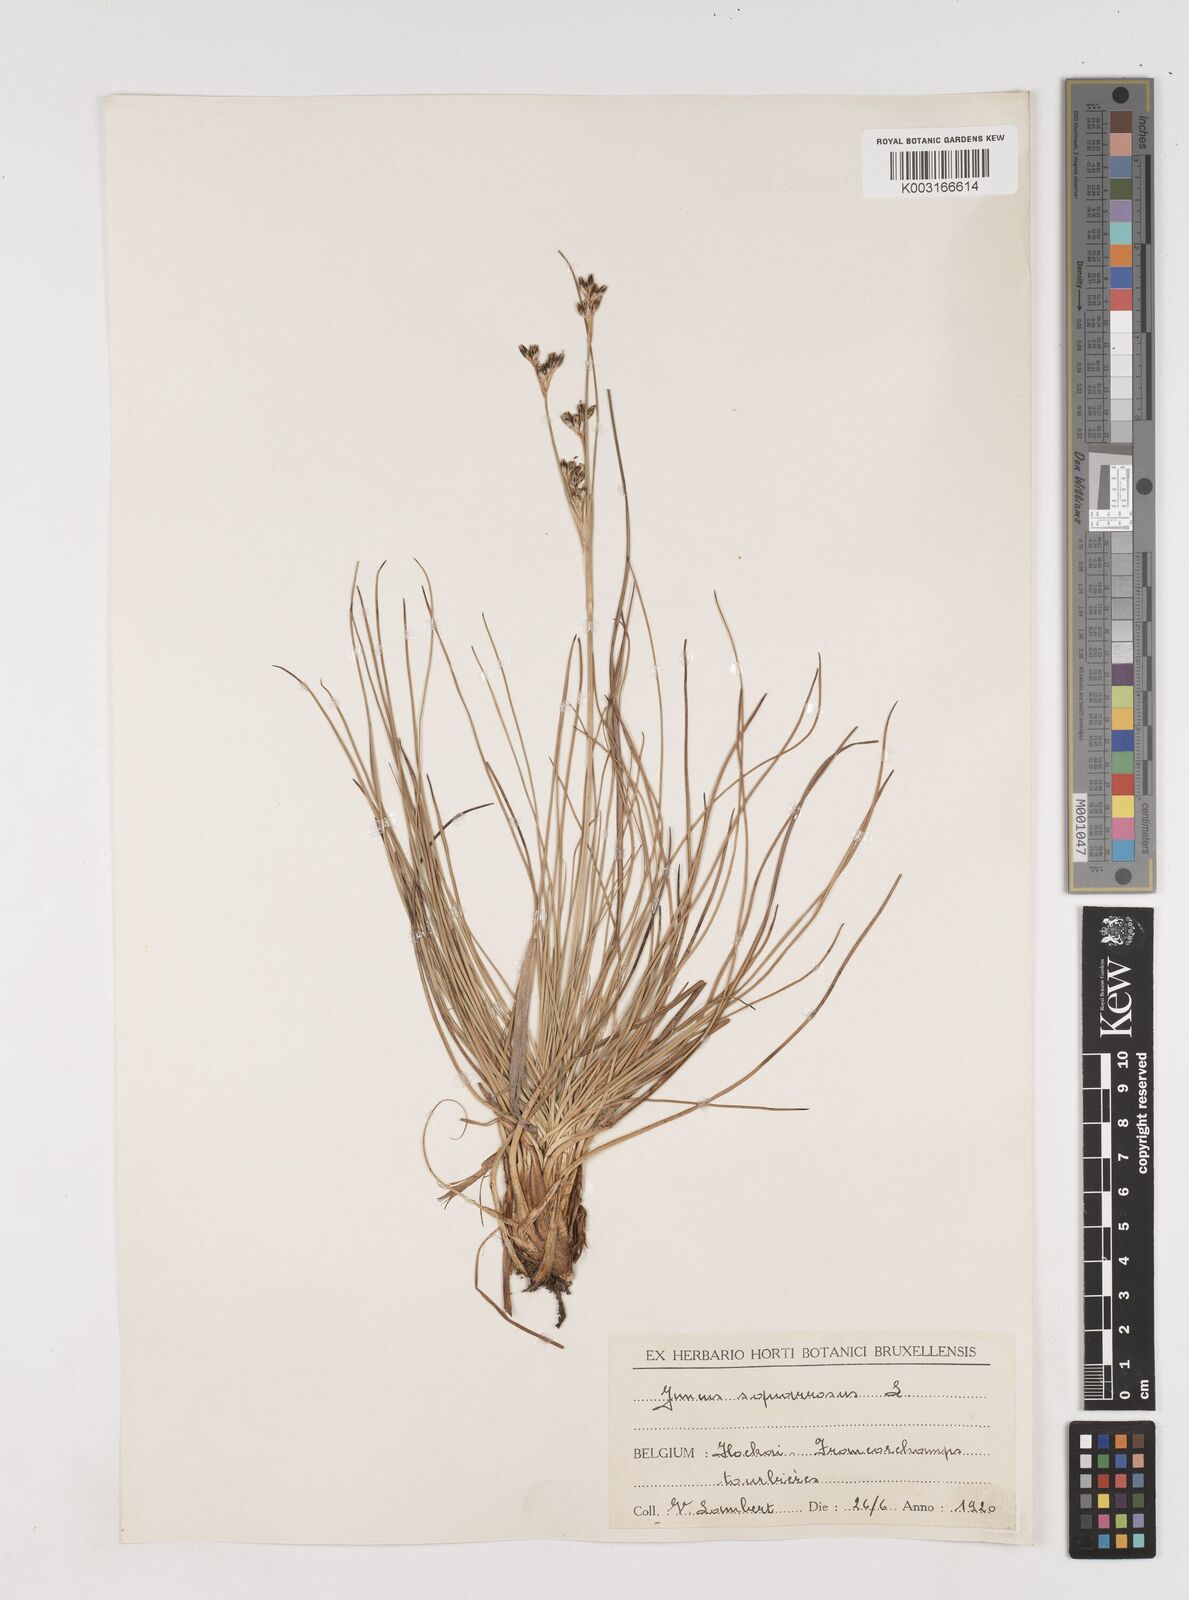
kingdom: Plantae
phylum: Tracheophyta
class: Liliopsida
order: Poales
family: Juncaceae
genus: Juncus
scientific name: Juncus squarrosus
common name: Heath rush
